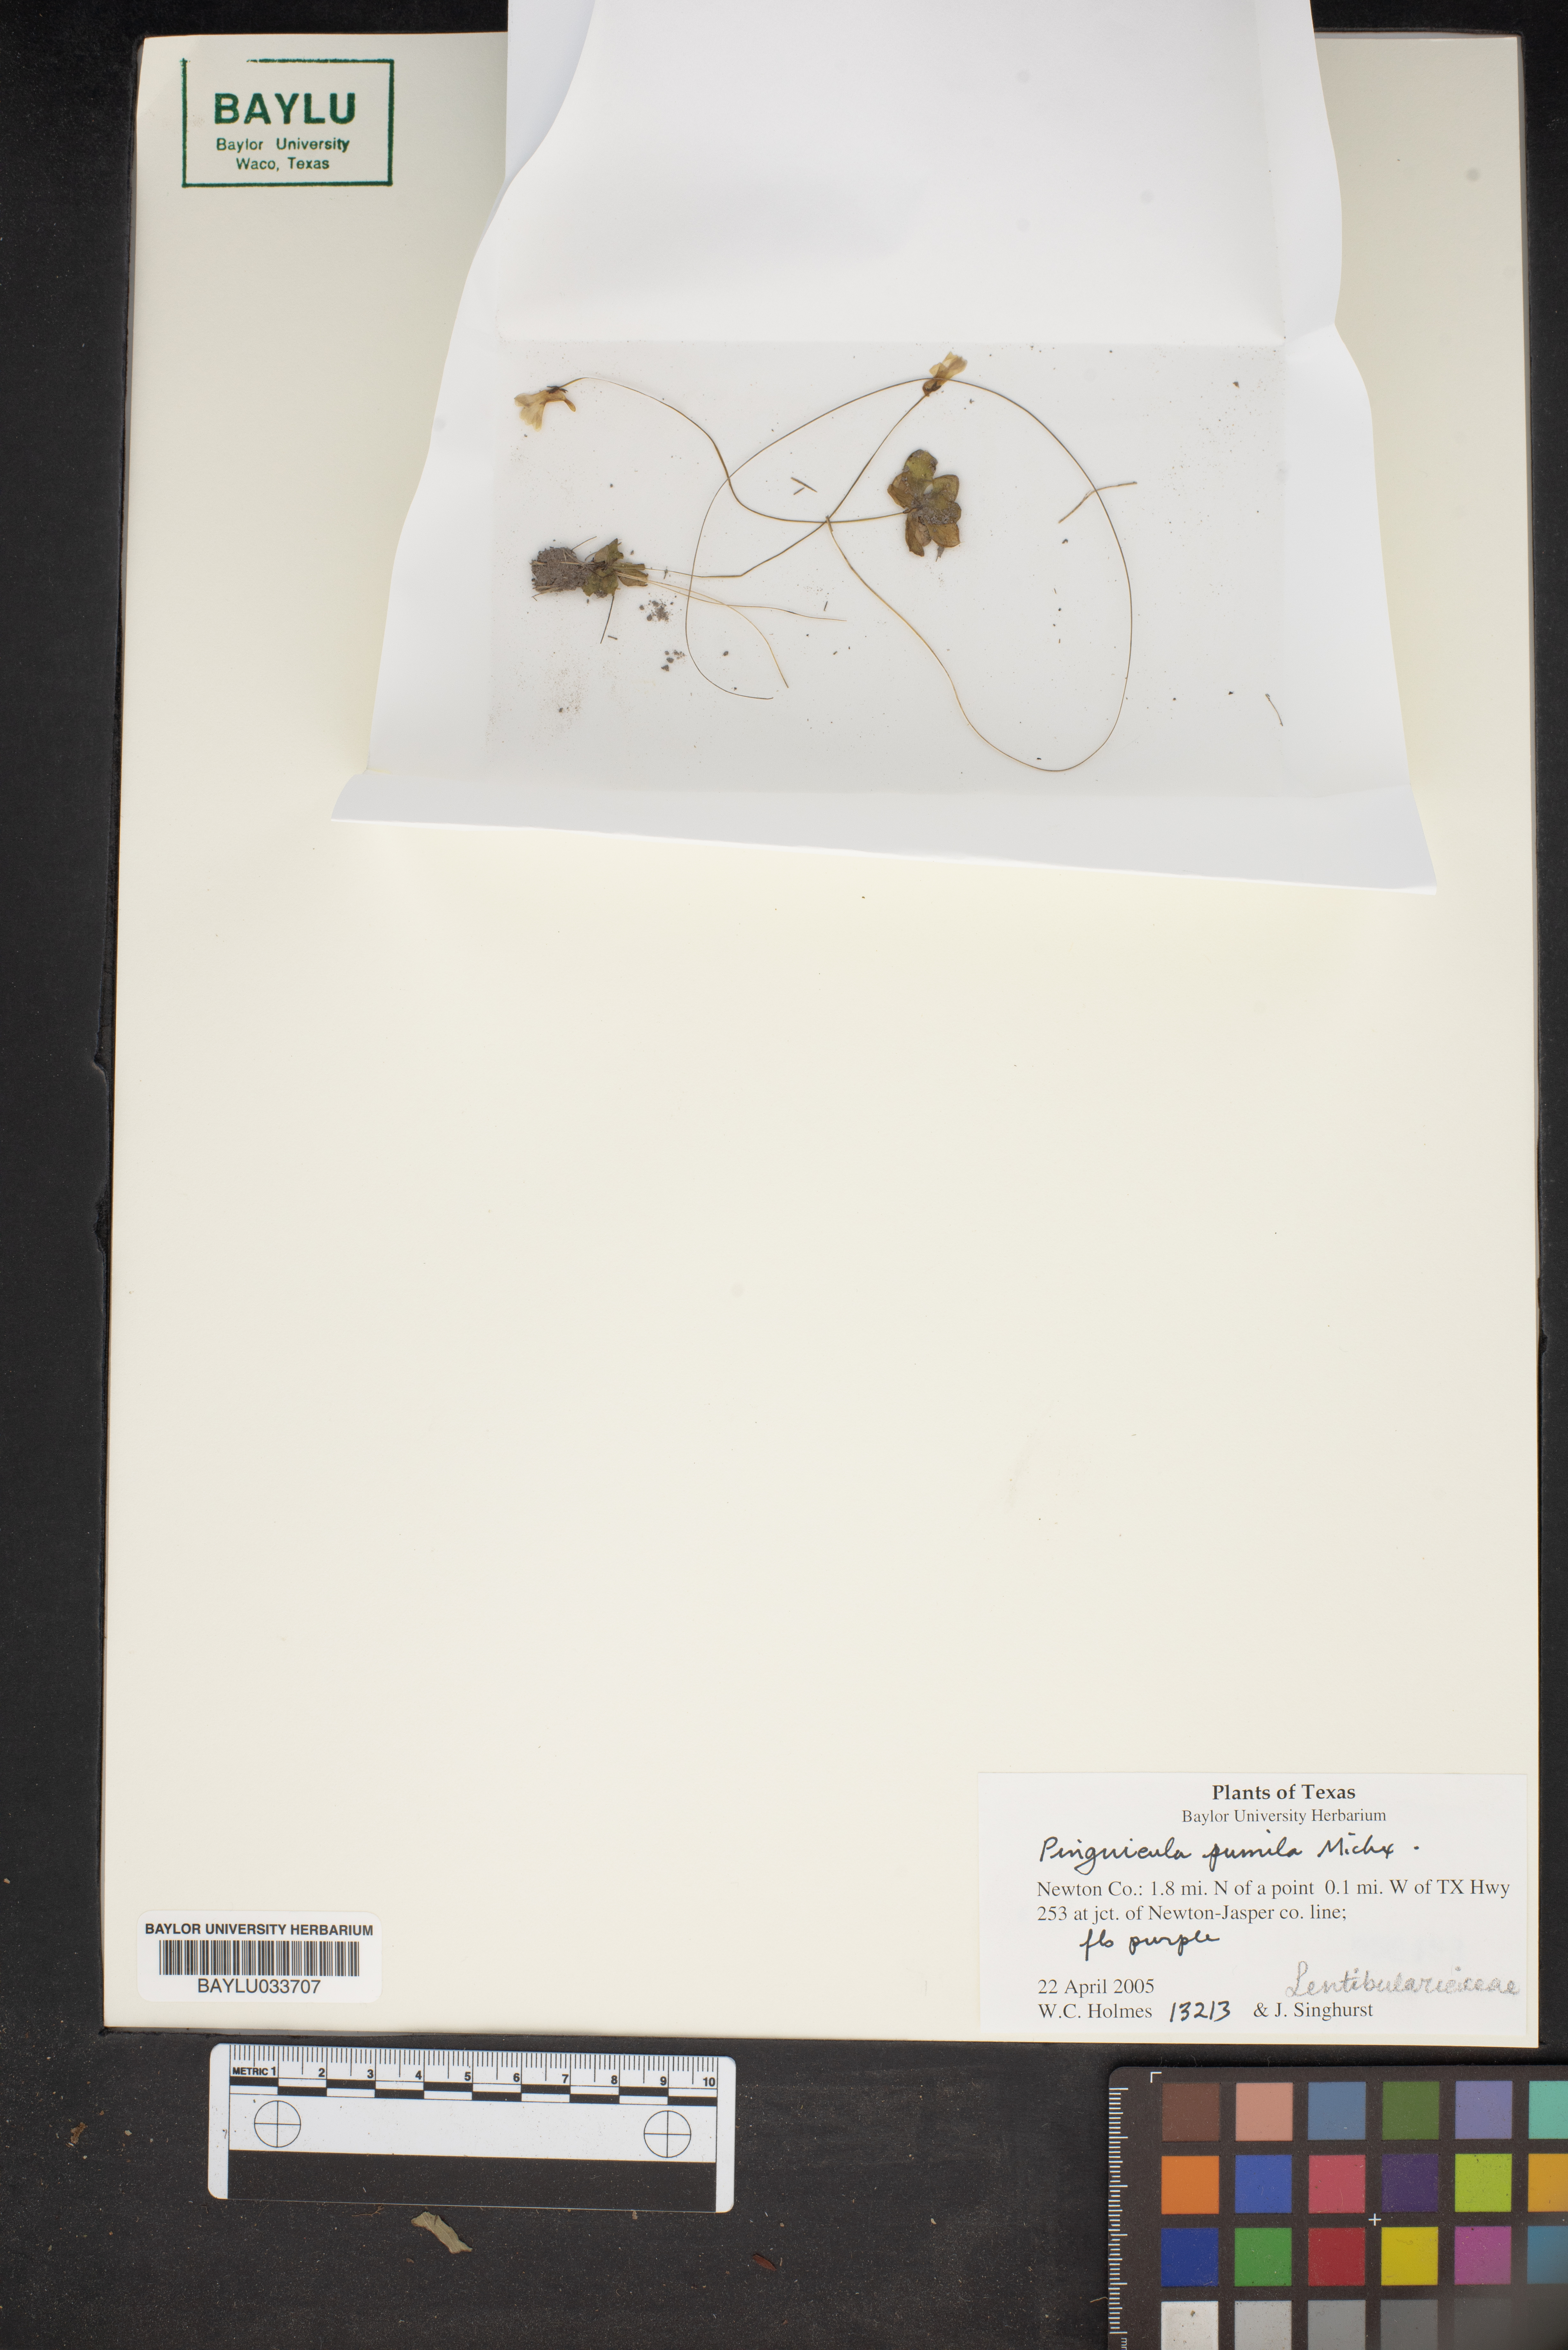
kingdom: Plantae
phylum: Tracheophyta
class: Magnoliopsida
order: Lamiales
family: Lentibulariaceae
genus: Pinguicula
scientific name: Pinguicula pumila
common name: Small butterwort
